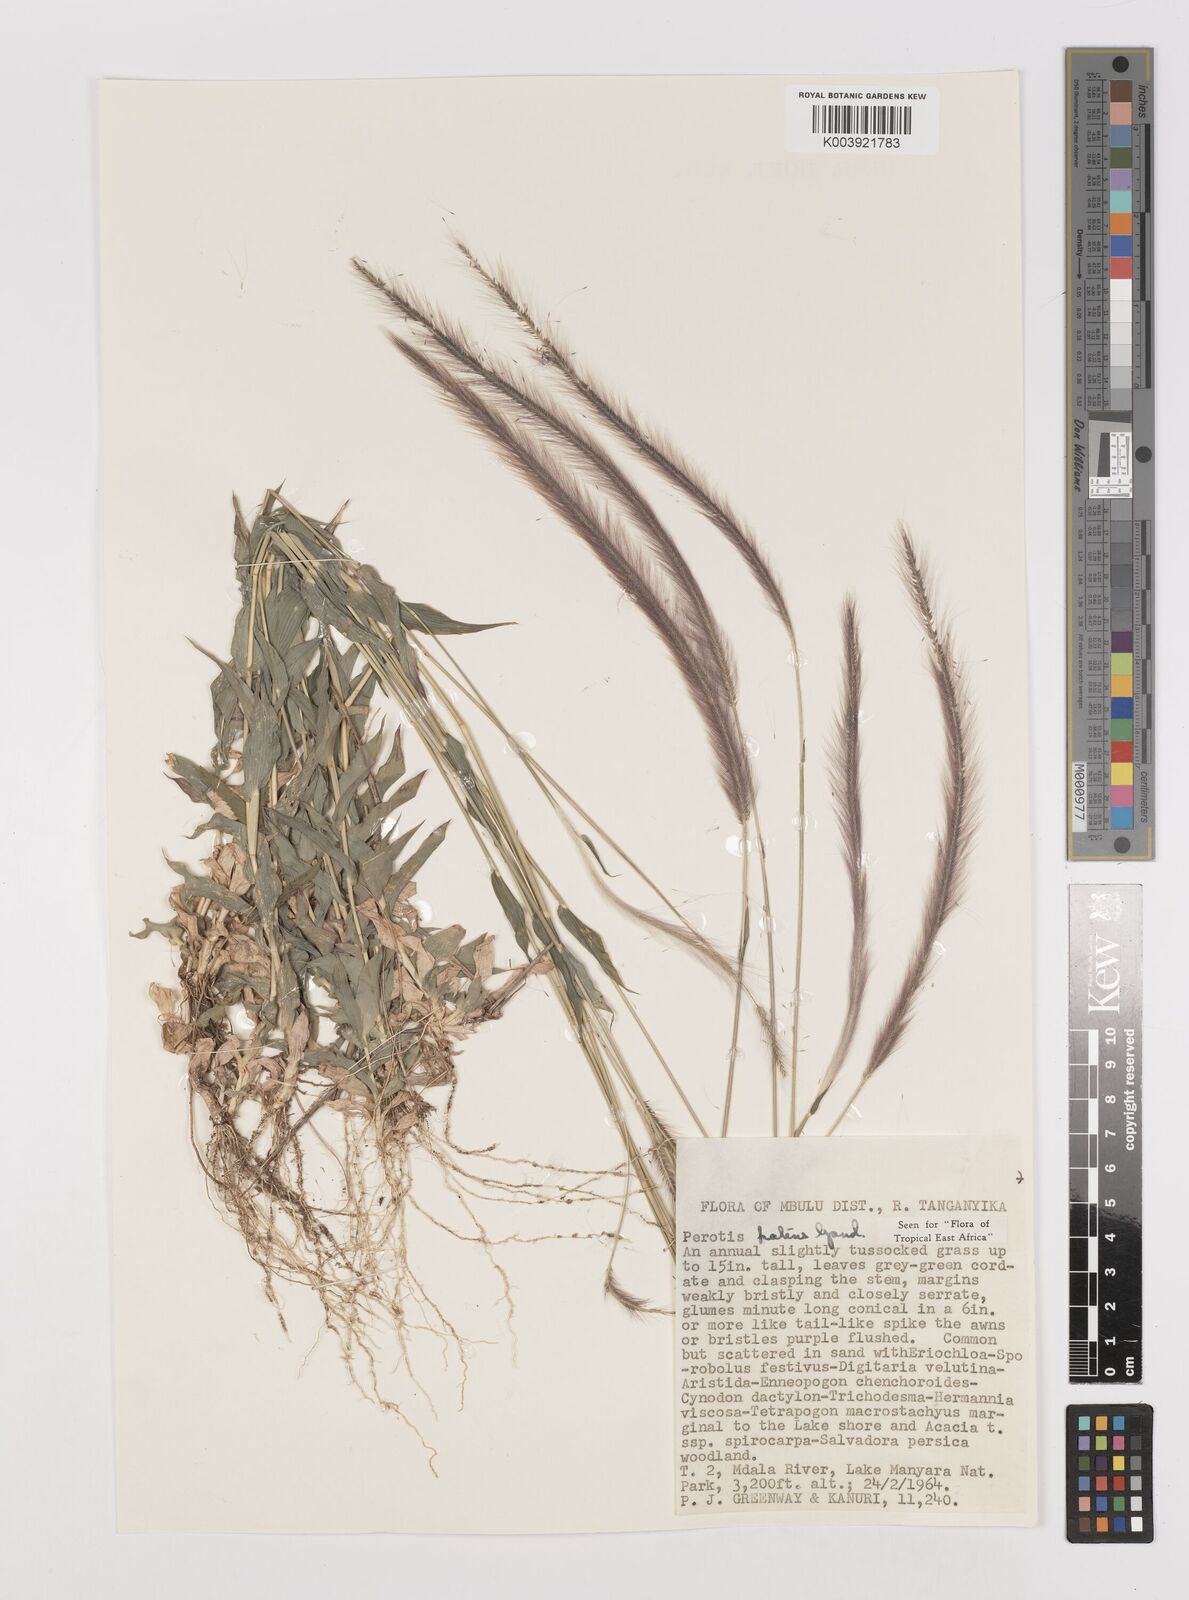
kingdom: Plantae
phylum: Tracheophyta
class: Liliopsida
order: Poales
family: Poaceae
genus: Perotis
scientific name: Perotis patens
